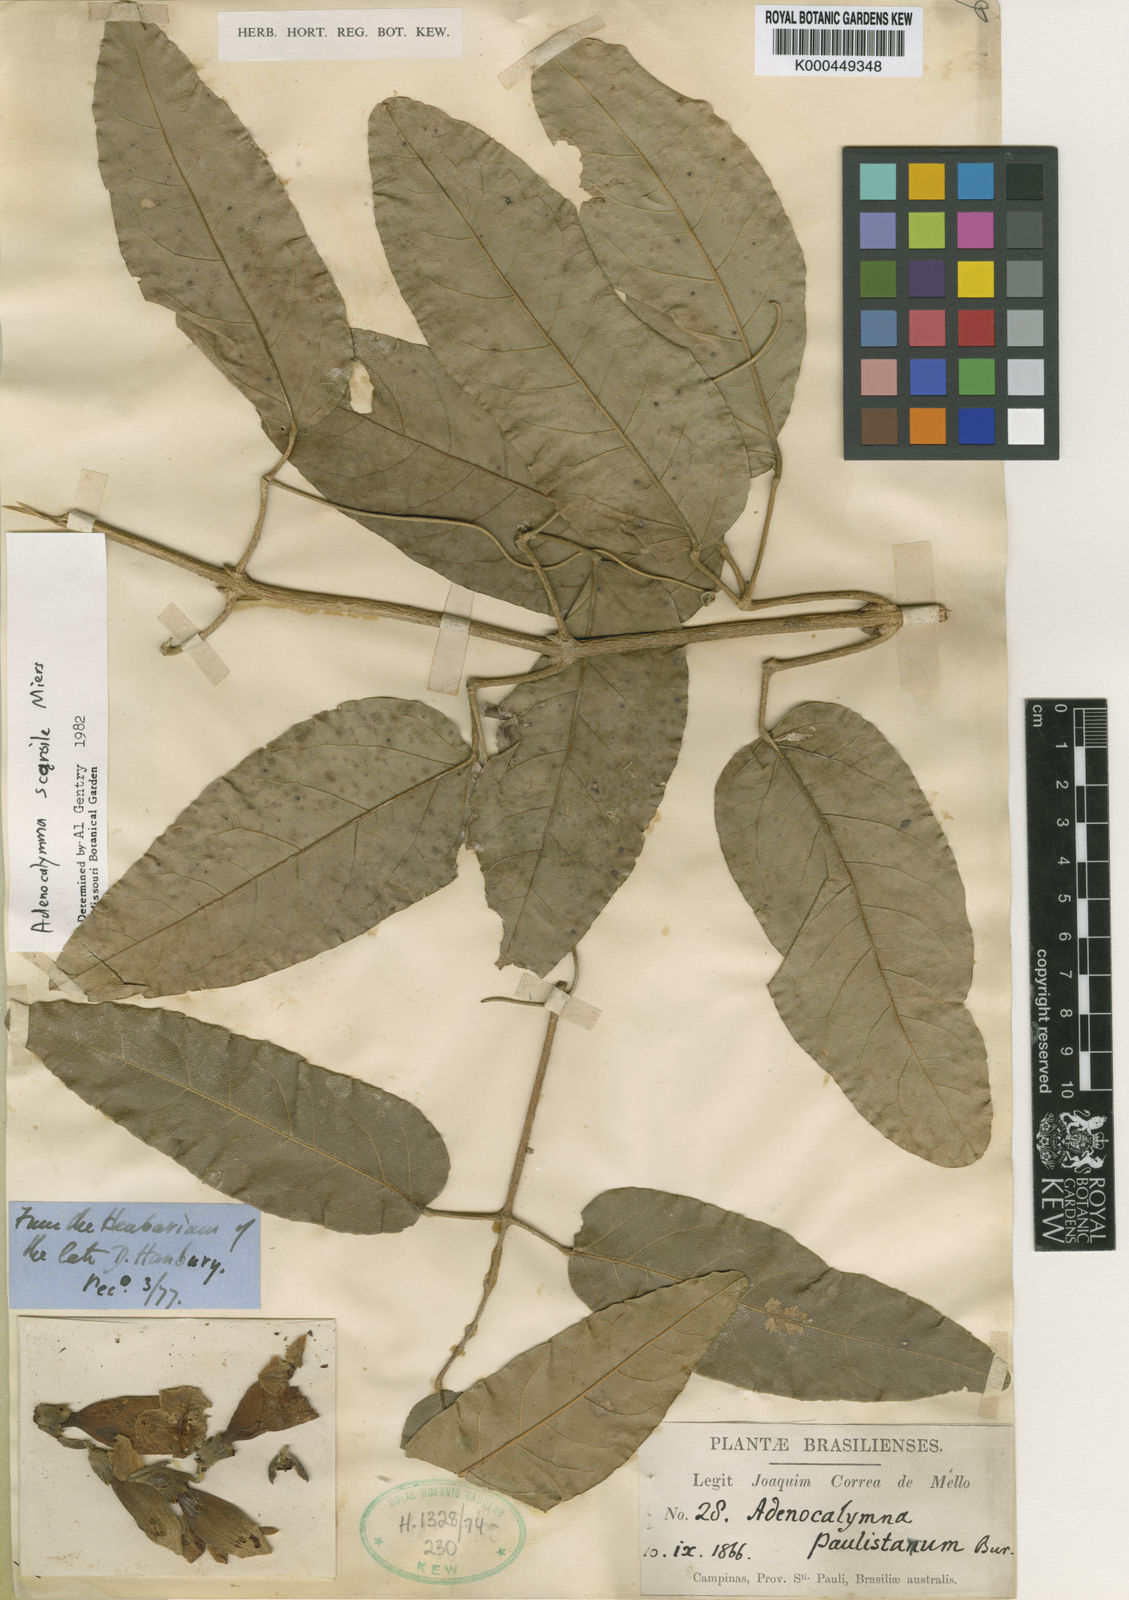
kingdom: Plantae
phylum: Tracheophyta
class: Magnoliopsida
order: Lamiales
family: Bignoniaceae
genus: Adenocalymma
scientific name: Adenocalymma scansile
